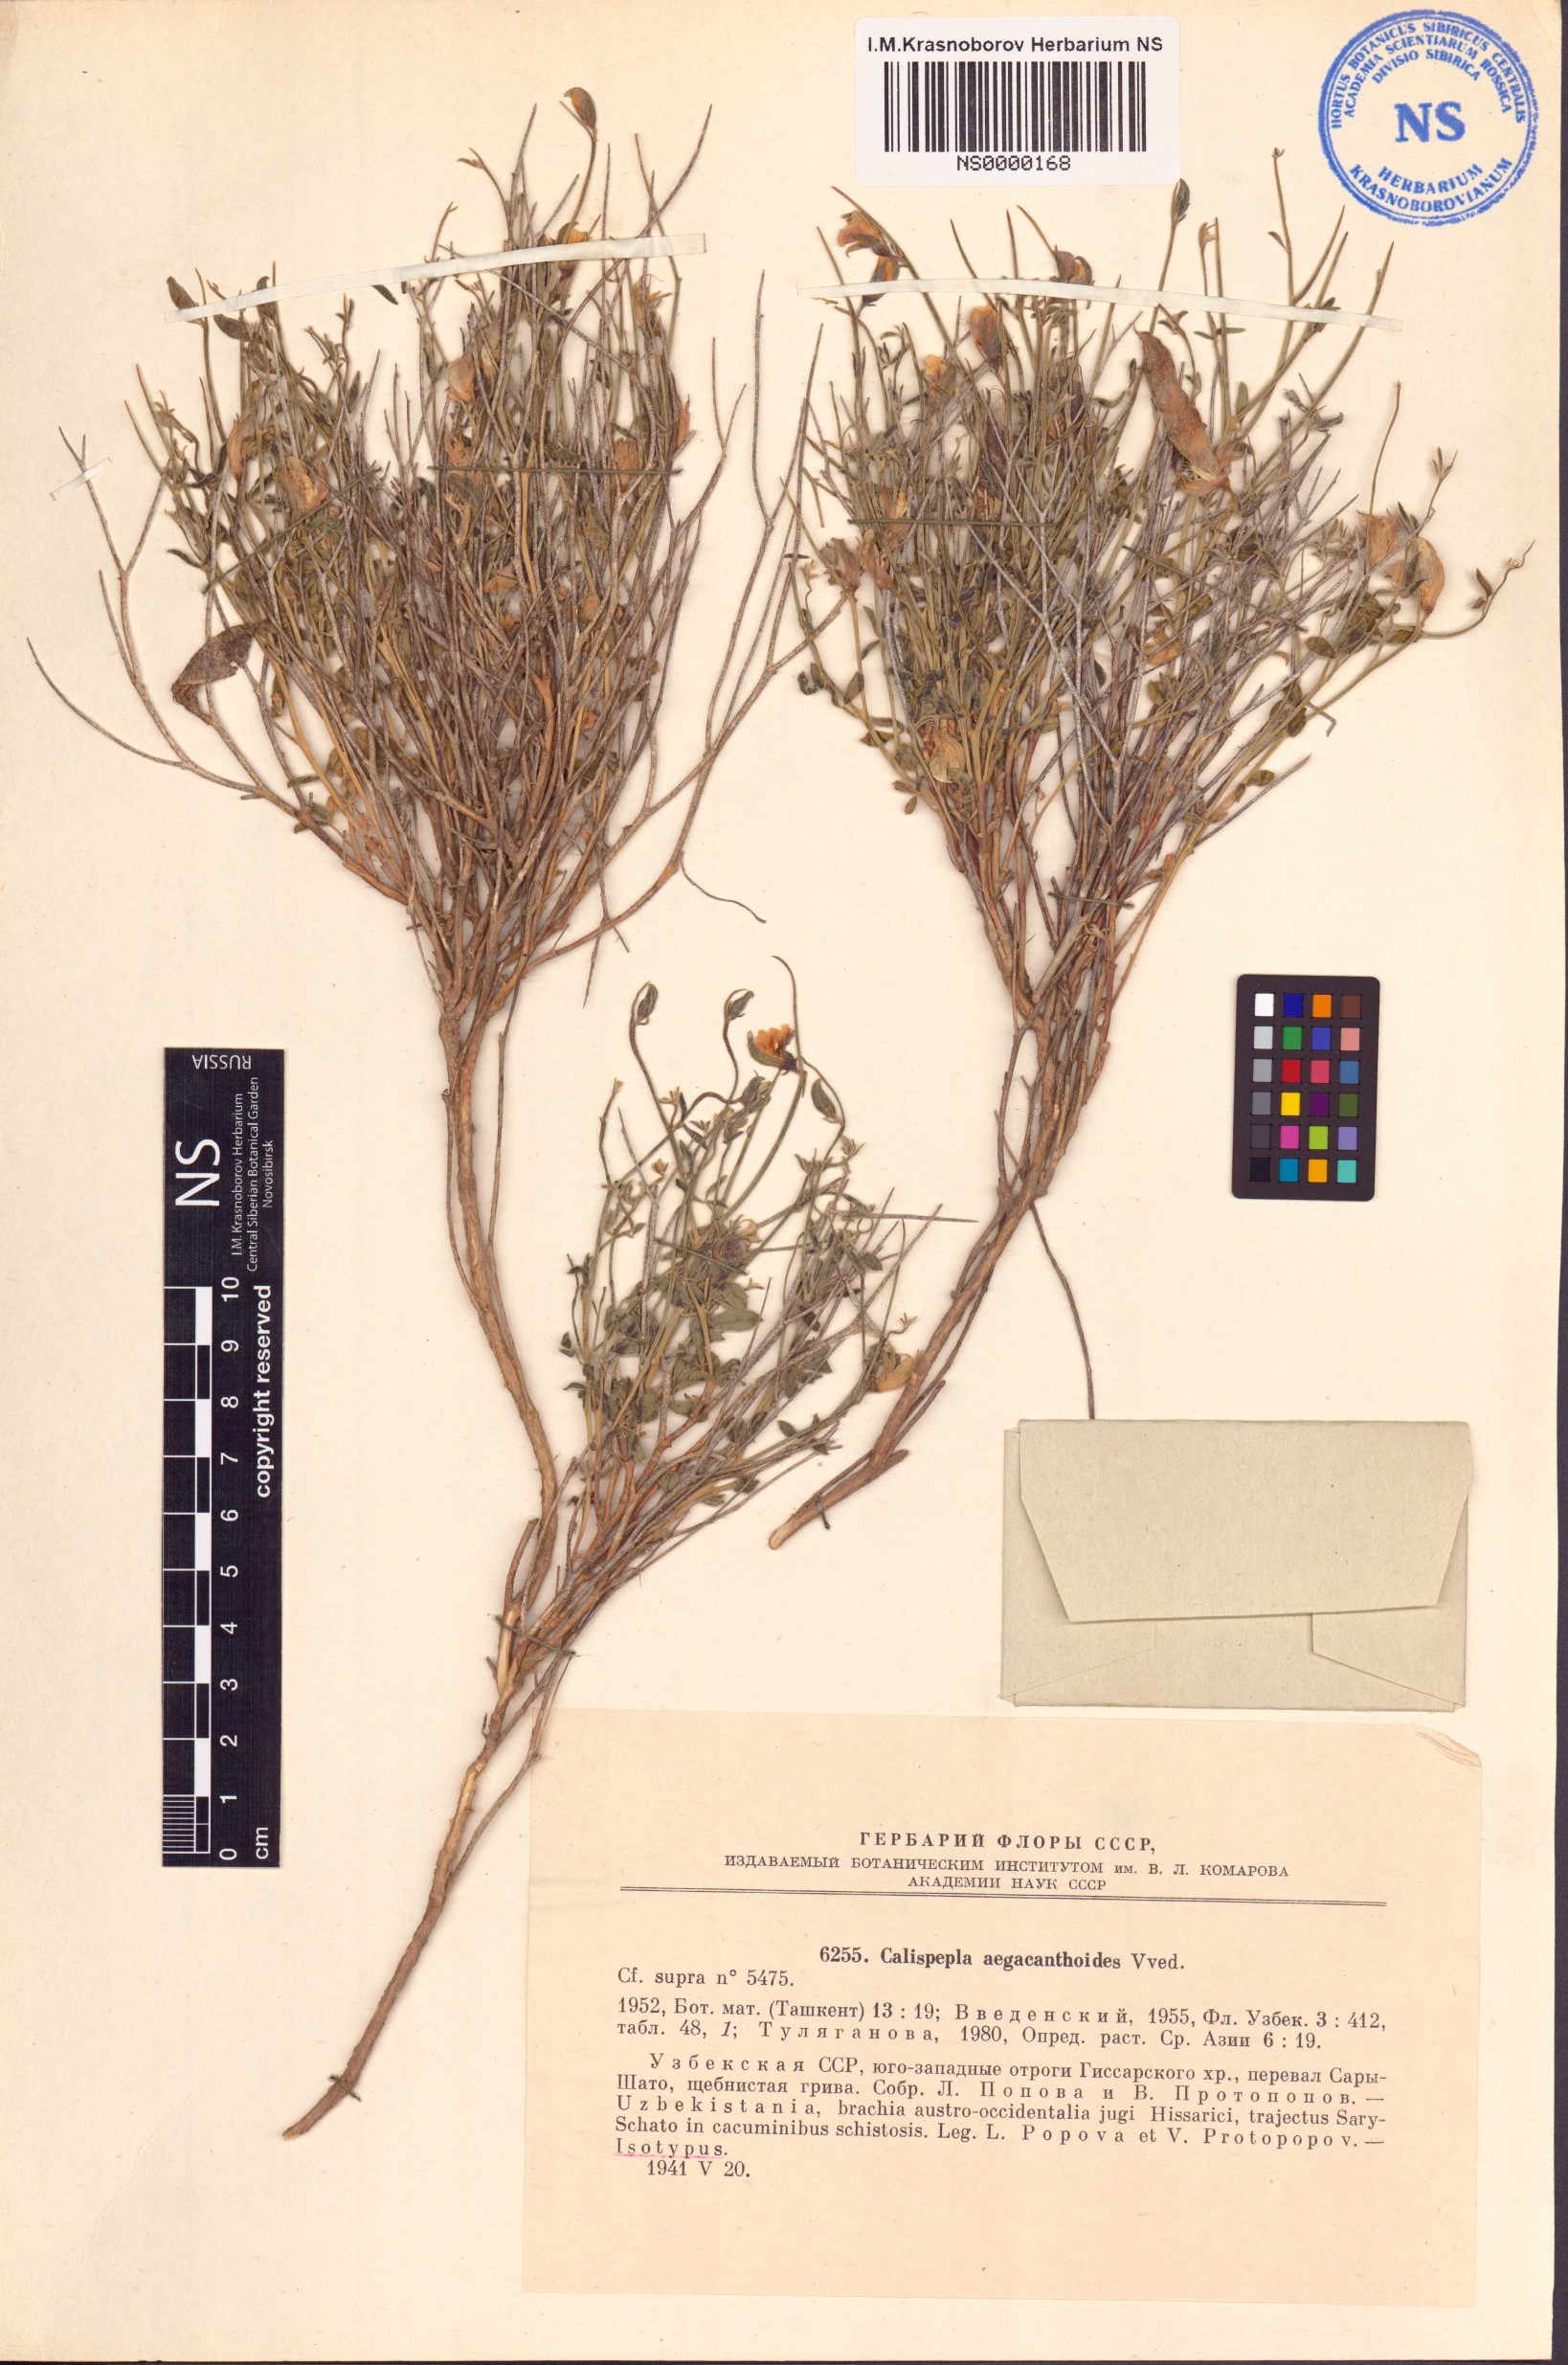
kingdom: Plantae
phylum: Tracheophyta
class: Magnoliopsida
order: Fabales
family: Fabaceae
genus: Argyrolobium
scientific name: Argyrolobium aegacanthoides
